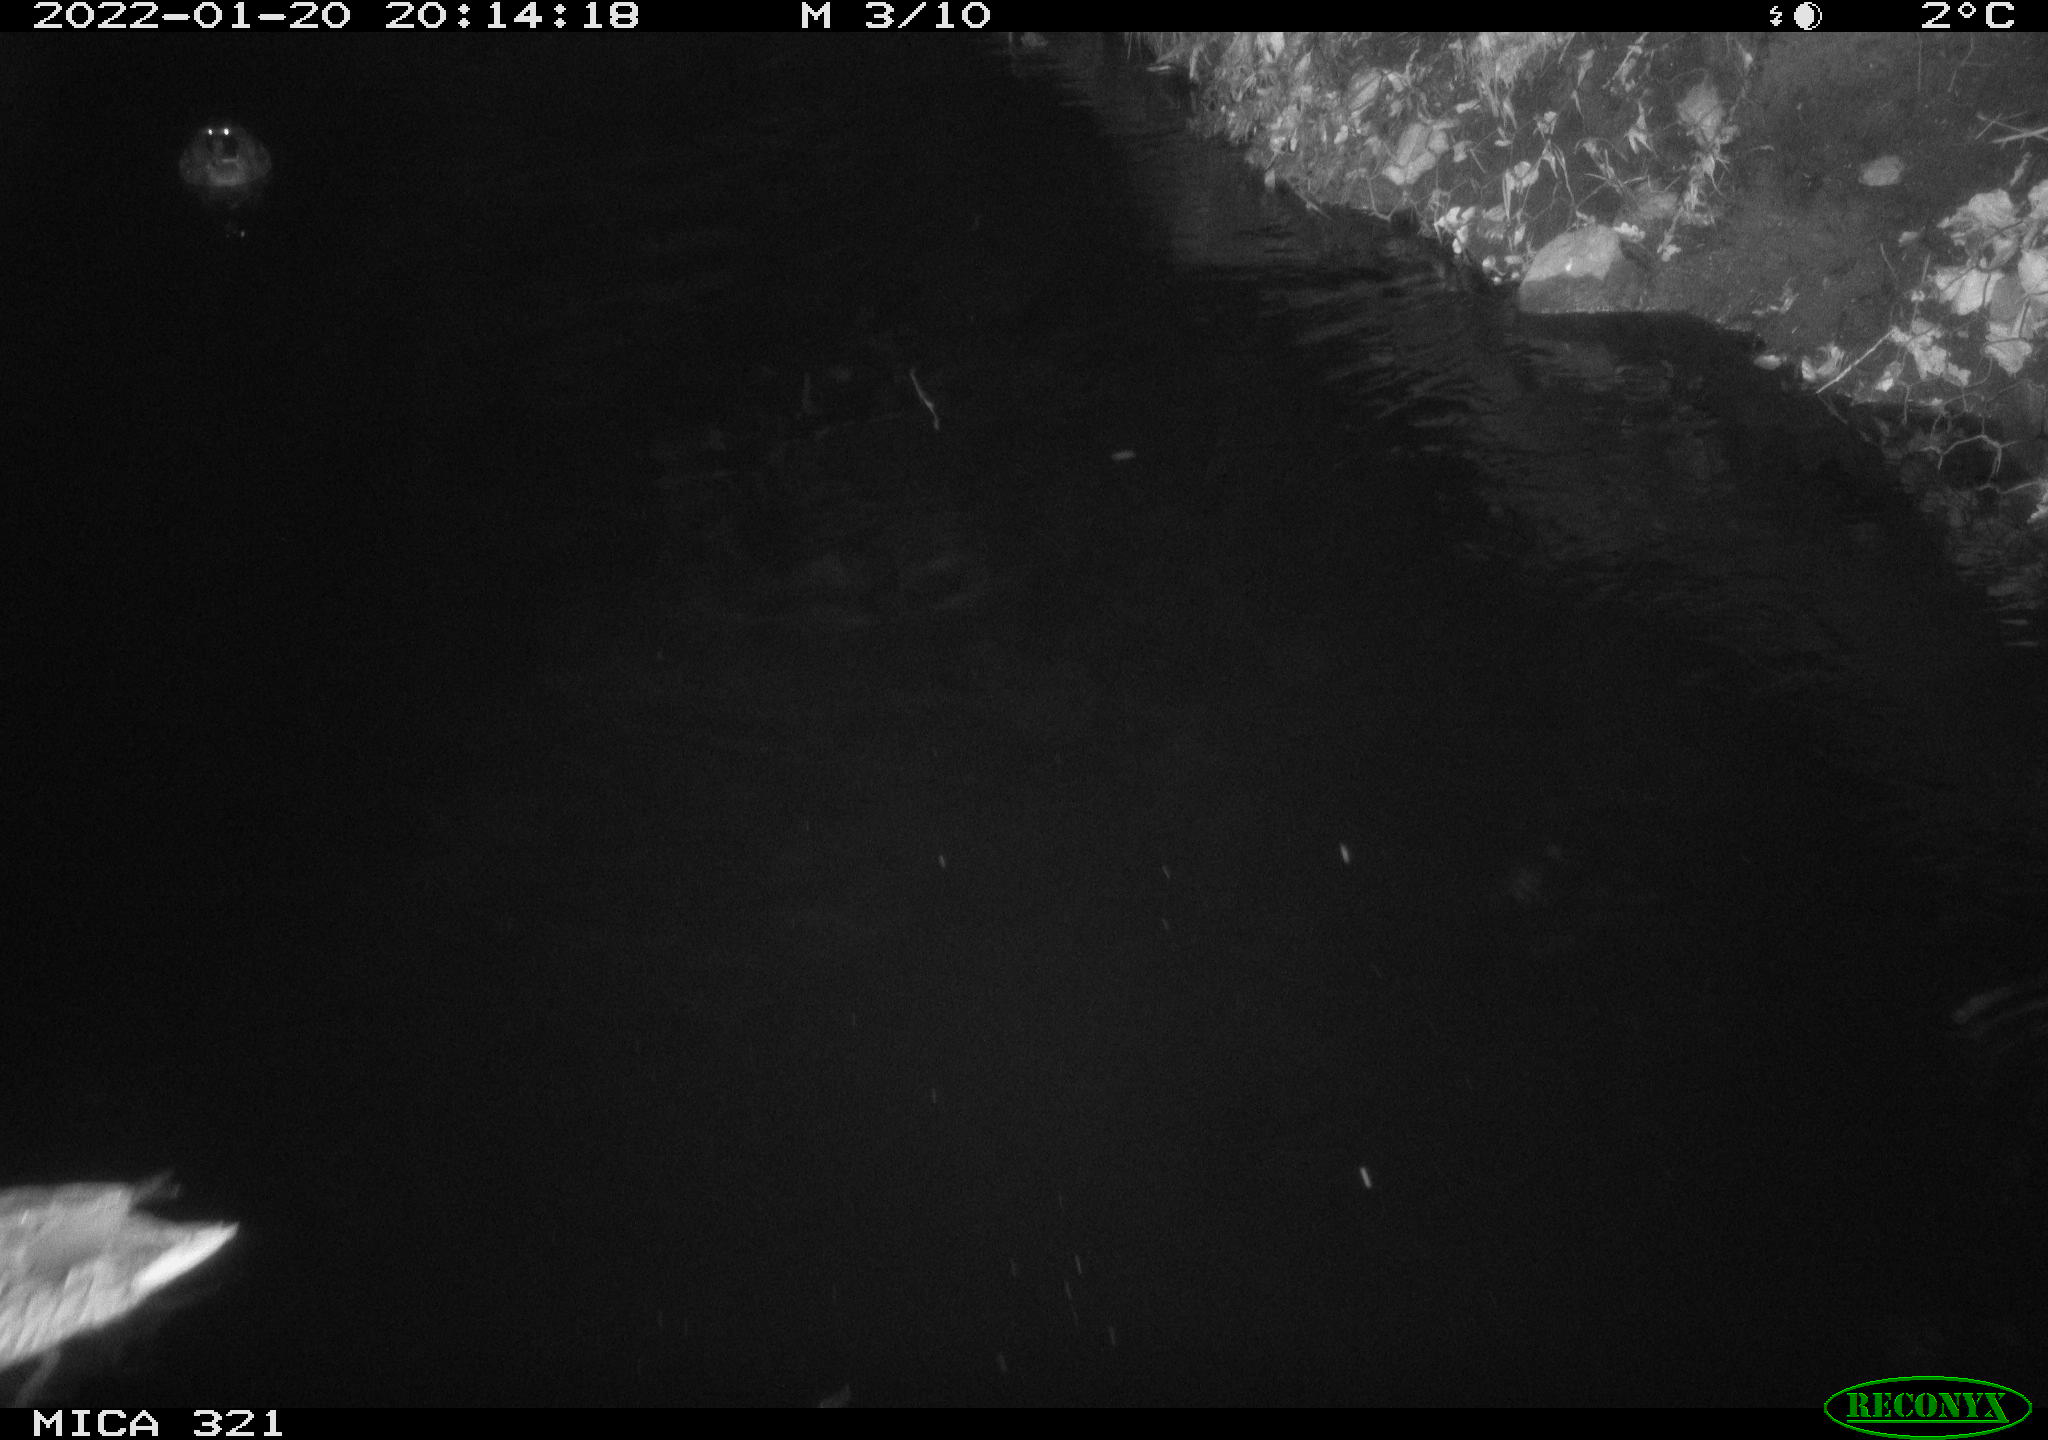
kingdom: Animalia
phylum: Chordata
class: Aves
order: Anseriformes
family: Anatidae
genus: Anas
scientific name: Anas
